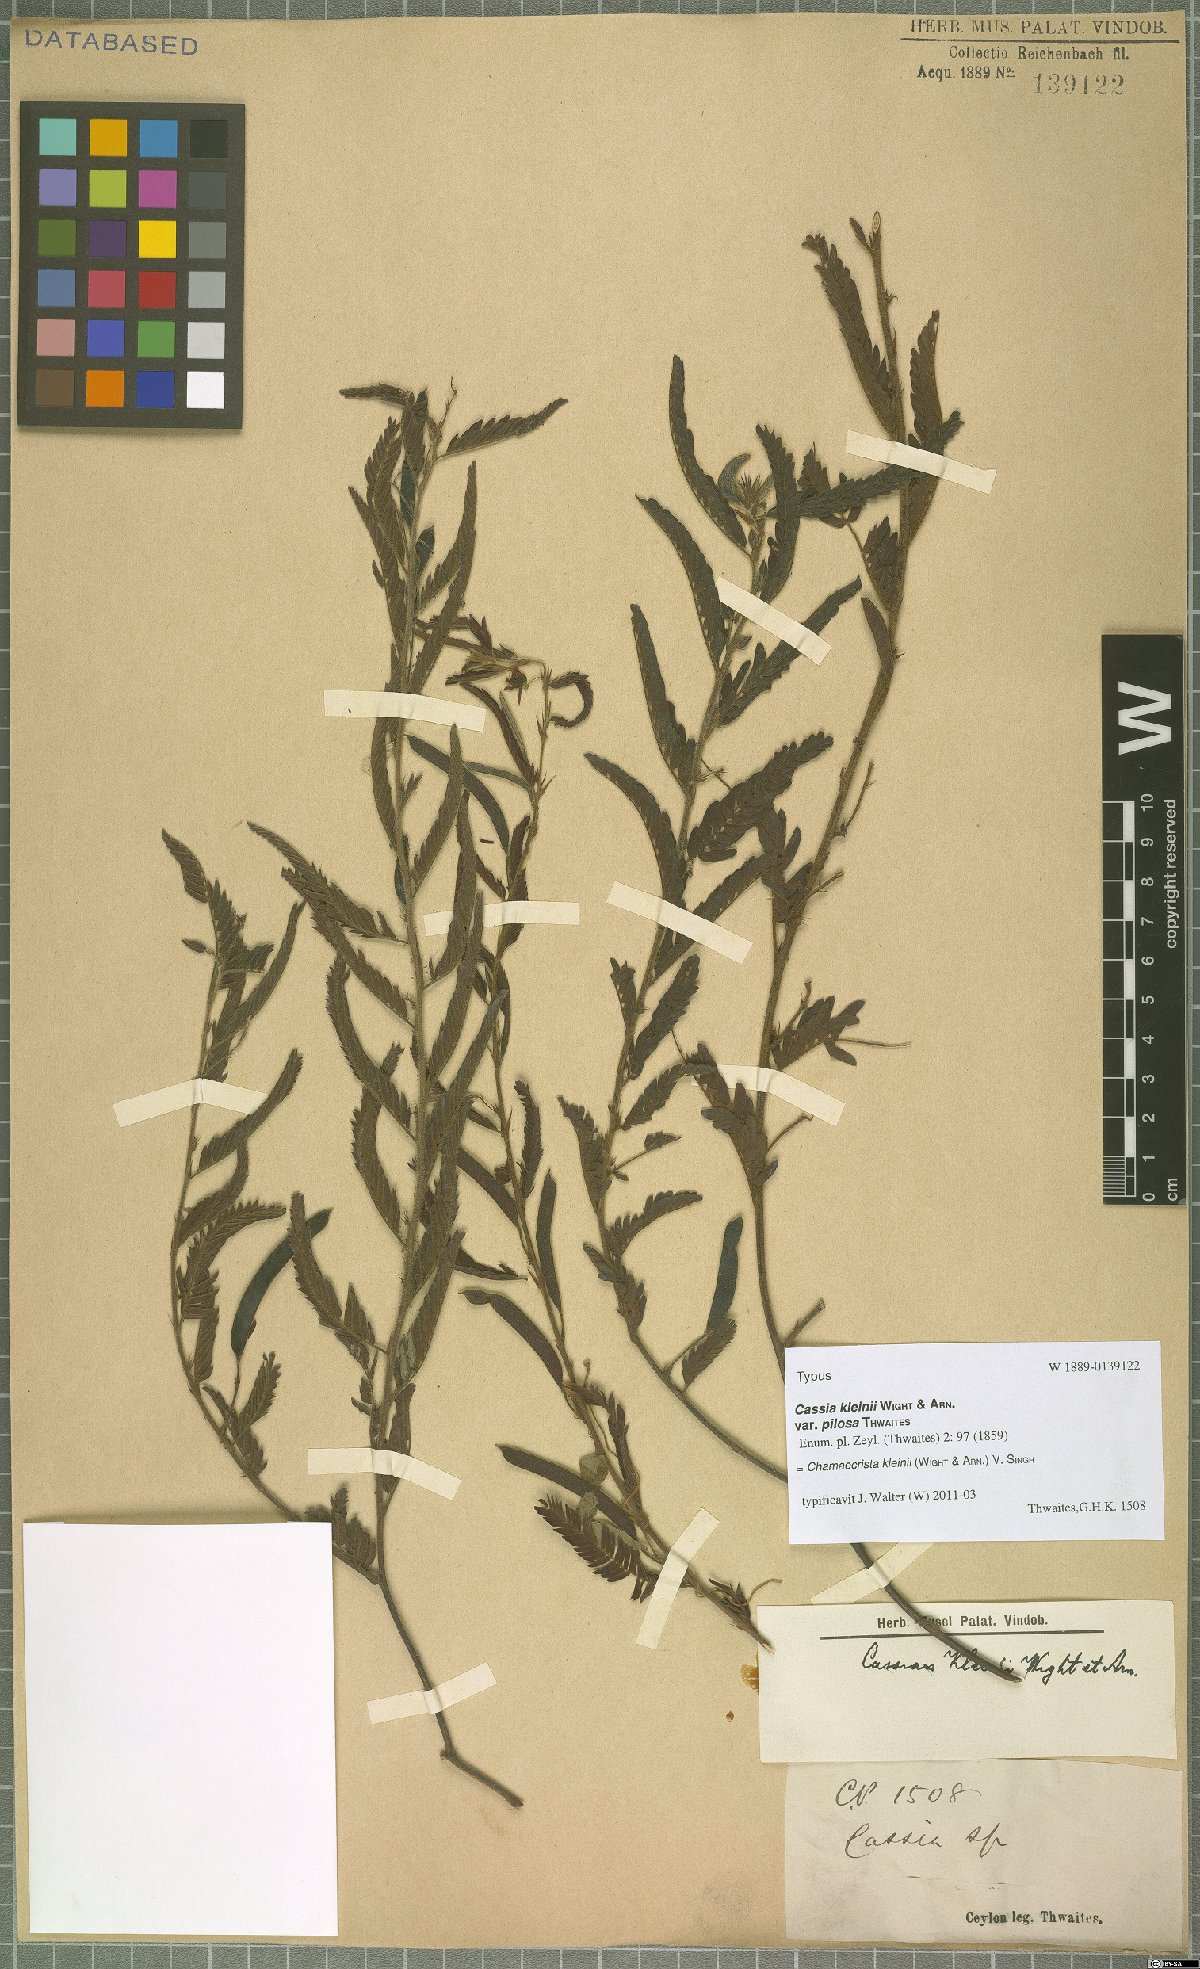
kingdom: Plantae
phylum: Tracheophyta
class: Magnoliopsida
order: Fabales
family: Fabaceae
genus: Chamaecrista
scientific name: Chamaecrista kleinii
